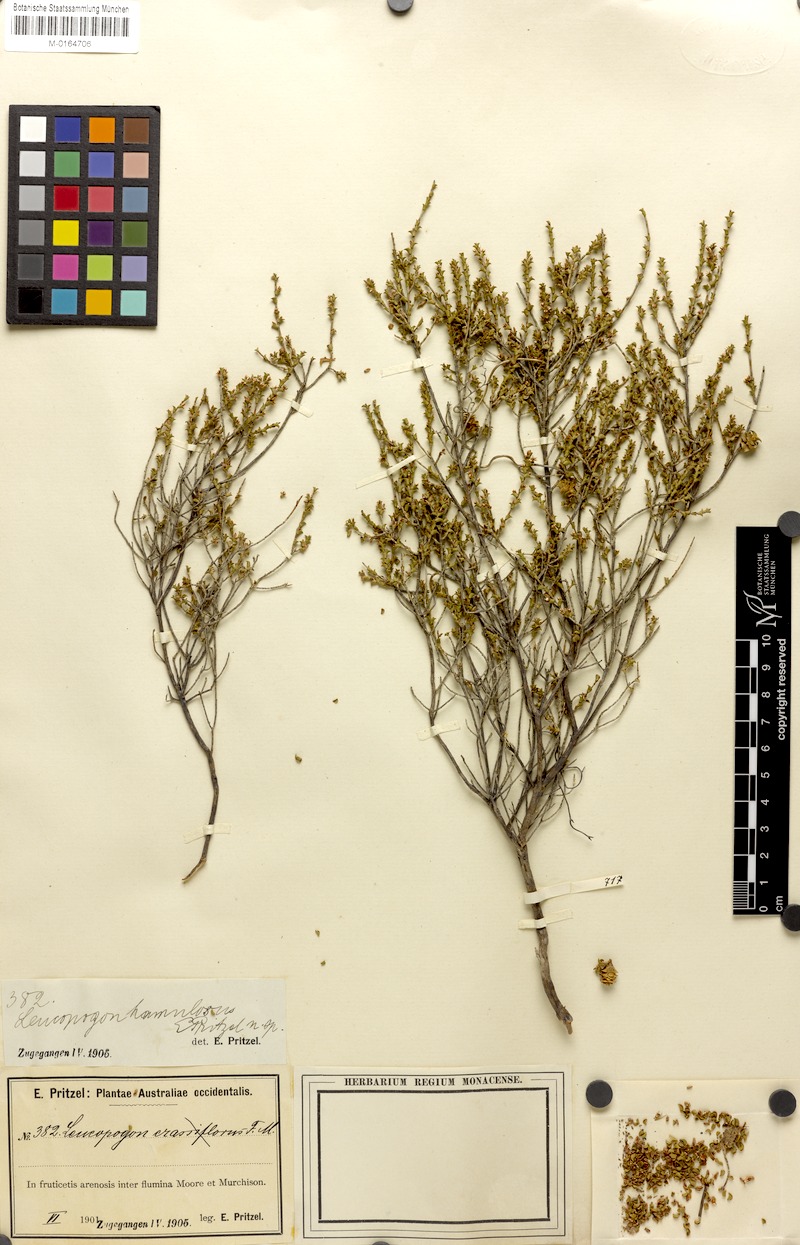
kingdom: Plantae
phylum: Tracheophyta
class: Magnoliopsida
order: Ericales
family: Ericaceae
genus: Styphelia
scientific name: Styphelia hamulosa
